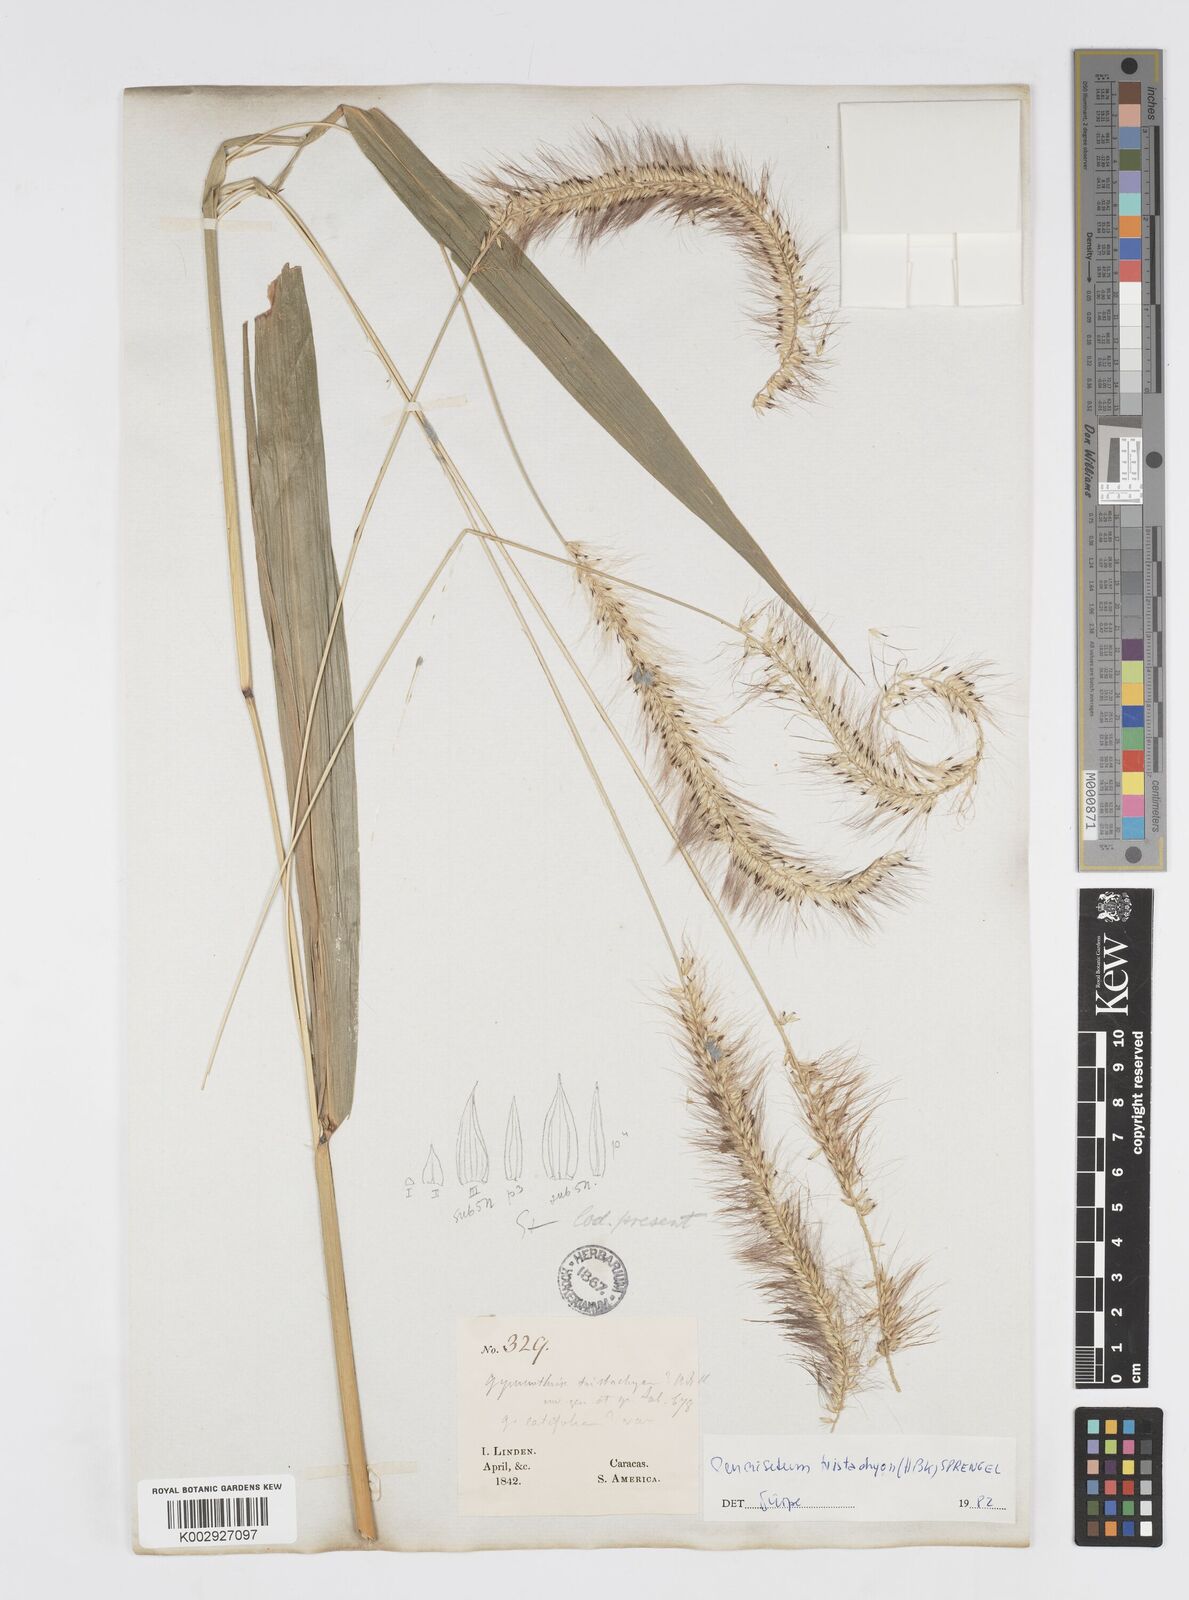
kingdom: Plantae
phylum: Tracheophyta
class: Liliopsida
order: Poales
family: Poaceae
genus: Cenchrus
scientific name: Cenchrus tristachyus
